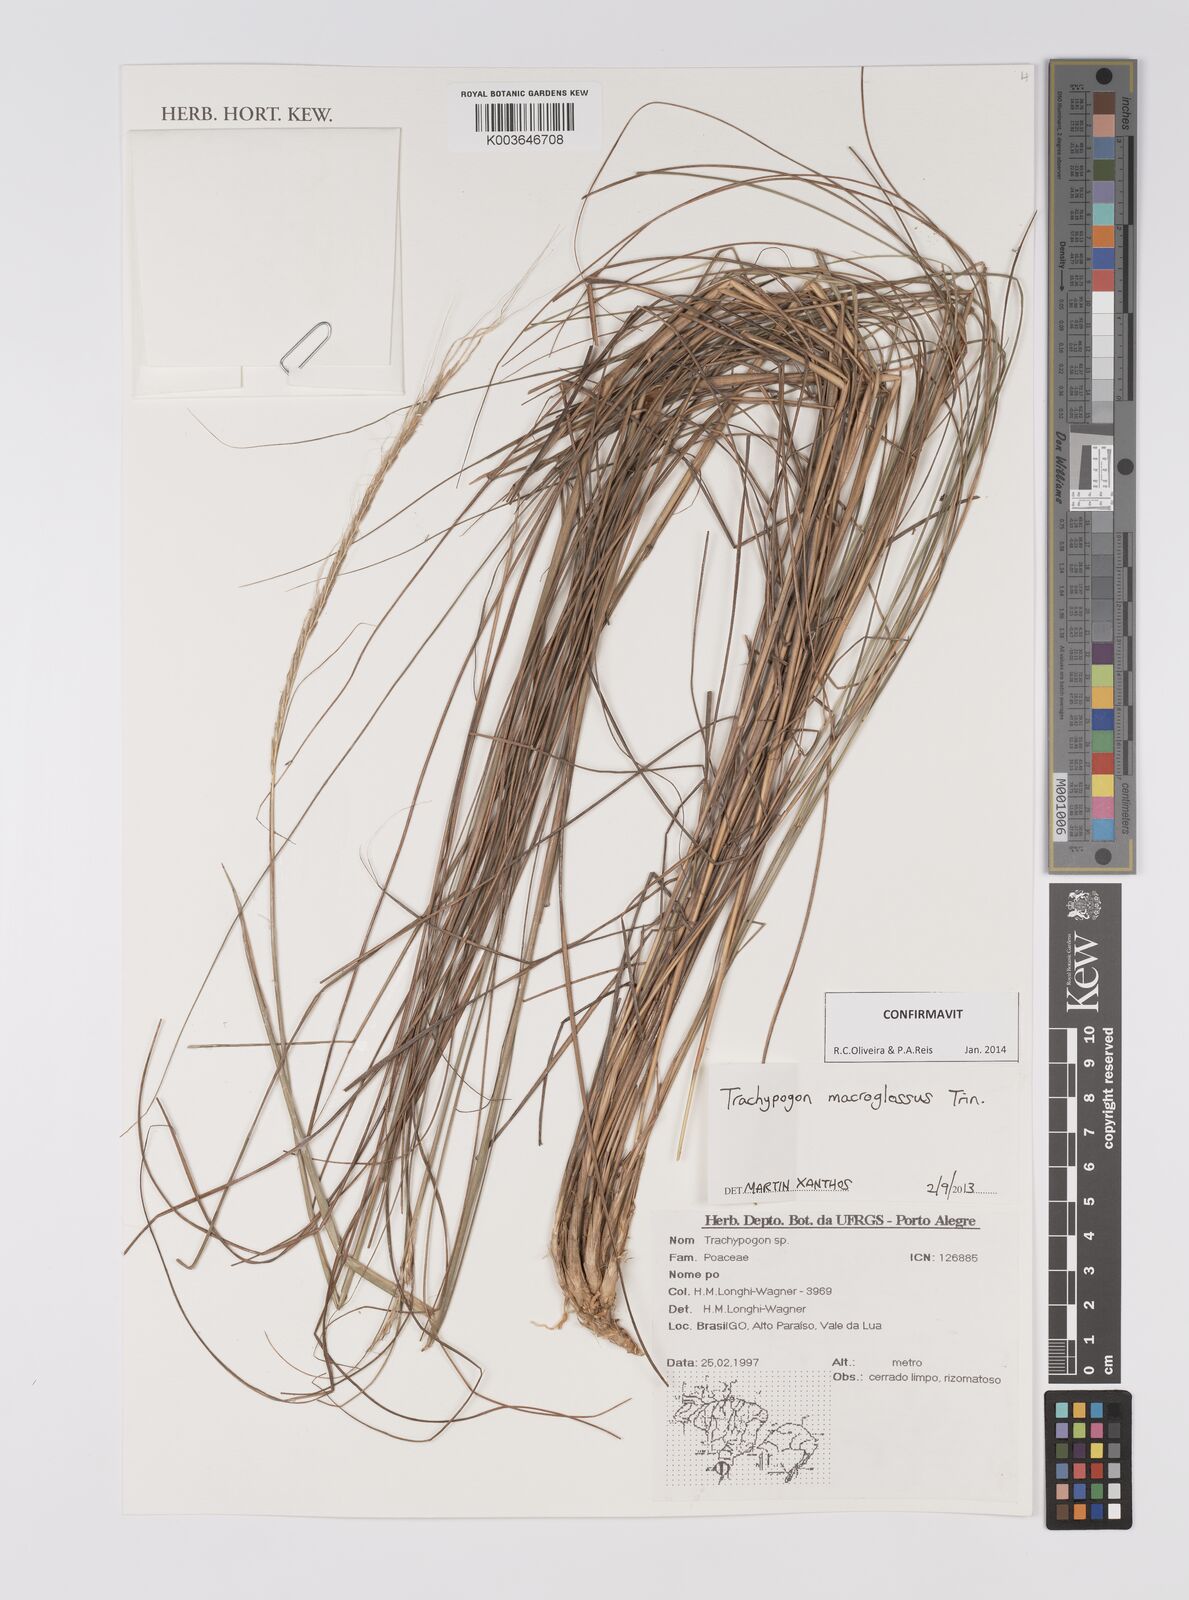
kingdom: Plantae
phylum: Tracheophyta
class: Liliopsida
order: Poales
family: Poaceae
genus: Trachypogon
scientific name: Trachypogon macroglossus
